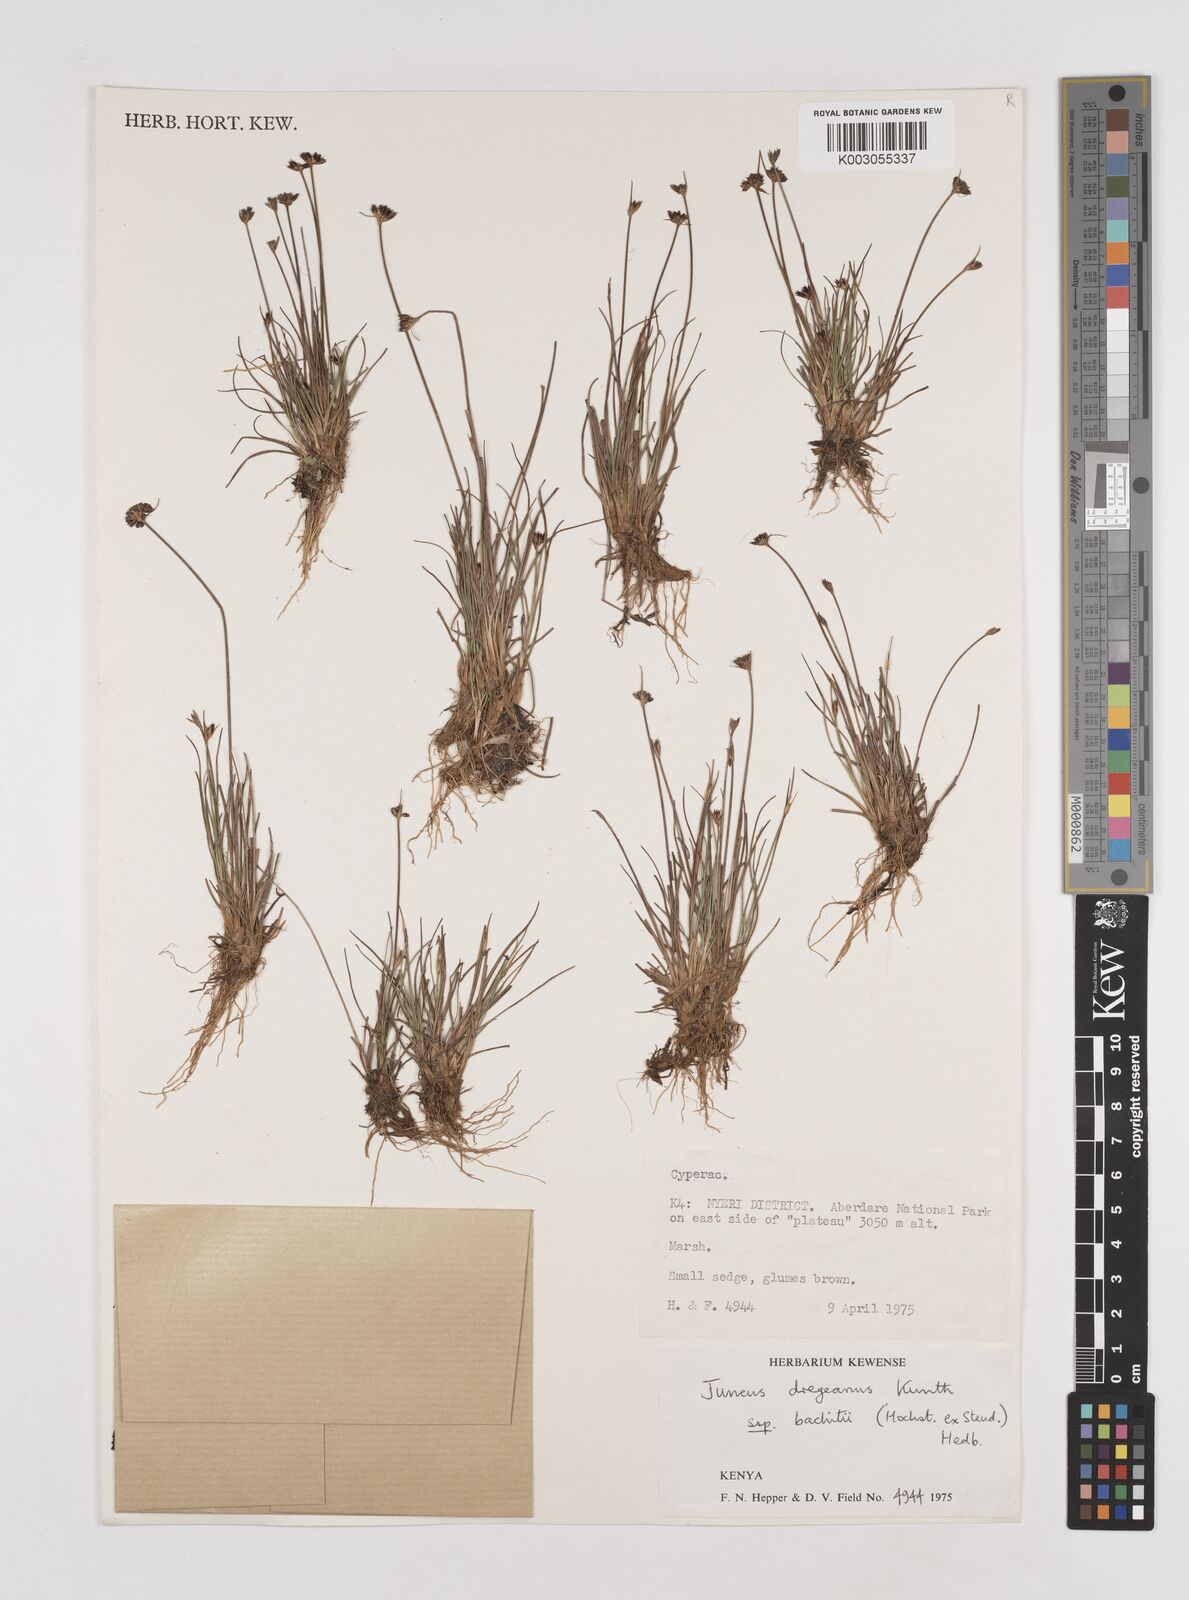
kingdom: Plantae
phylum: Tracheophyta
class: Liliopsida
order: Poales
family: Juncaceae
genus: Juncus
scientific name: Juncus dregeanus
